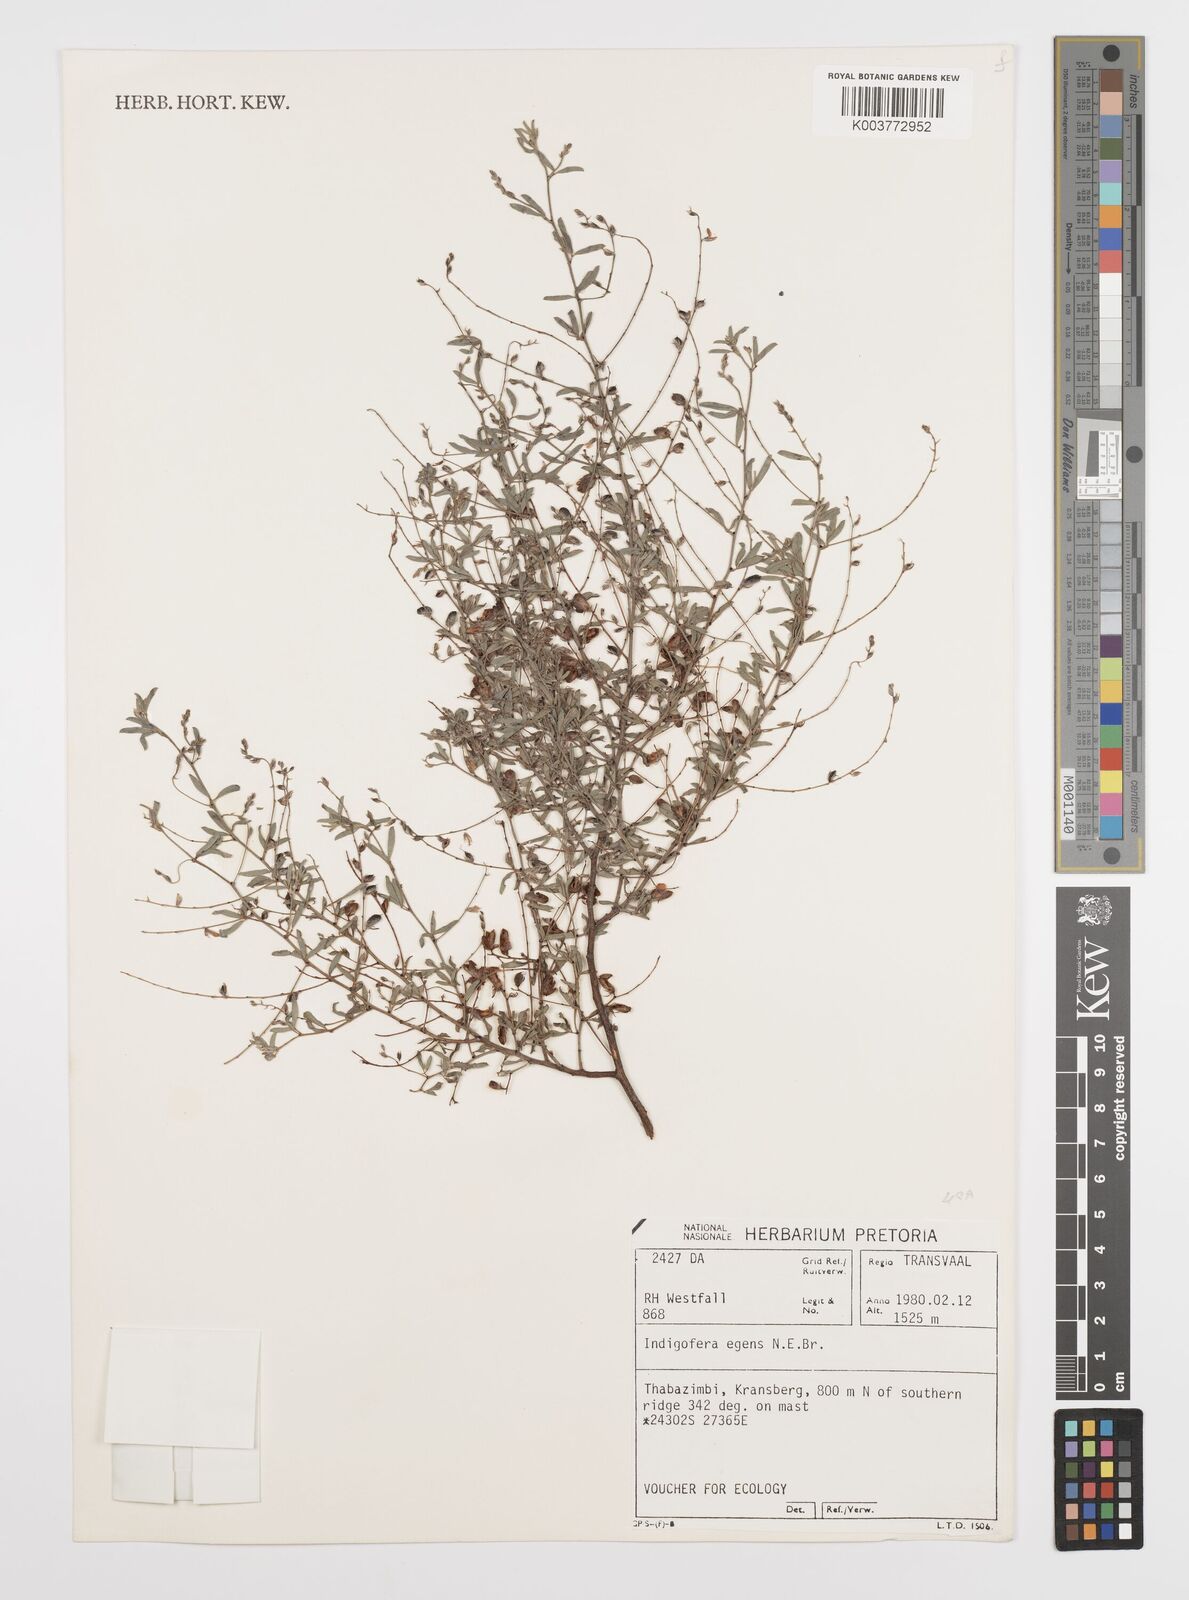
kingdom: Plantae
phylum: Tracheophyta
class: Magnoliopsida
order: Fabales
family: Fabaceae
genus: Indigofera
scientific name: Indigofera
